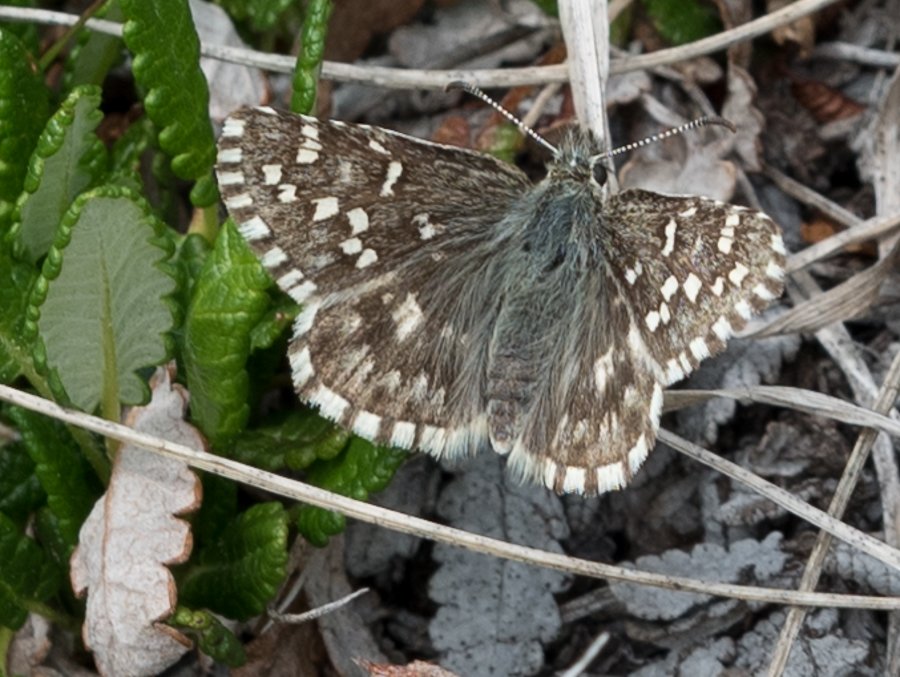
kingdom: Animalia
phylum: Arthropoda
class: Insecta
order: Lepidoptera
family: Hesperiidae
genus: Pyrgus
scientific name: Pyrgus centaureae
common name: Grizzled Skipper
